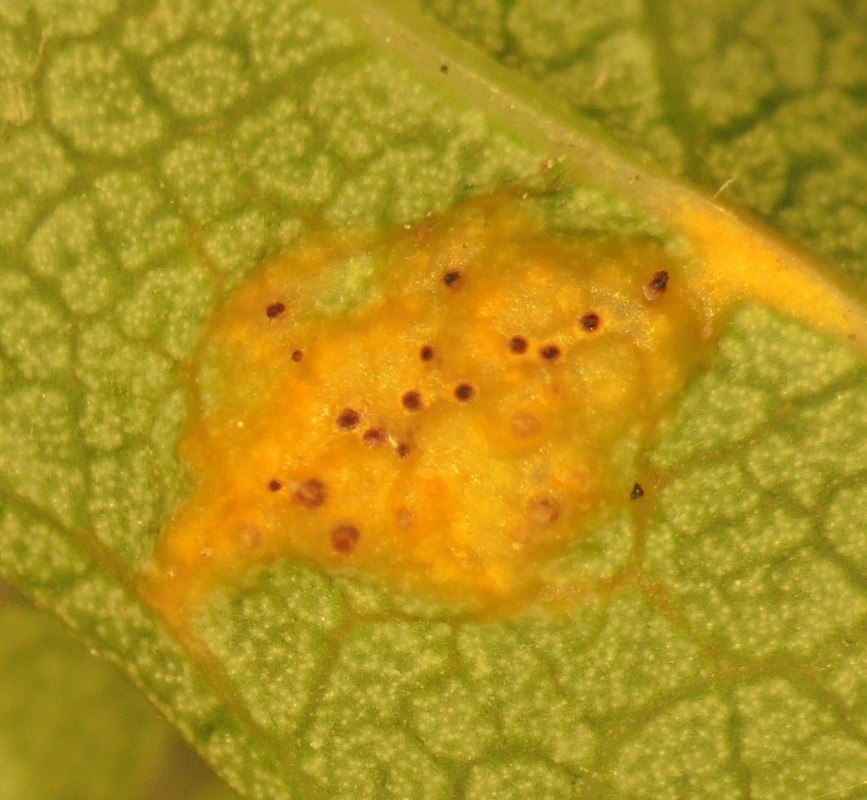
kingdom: Fungi
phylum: Basidiomycota
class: Pucciniomycetes
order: Pucciniales
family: Gymnosporangiaceae
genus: Gymnosporangium
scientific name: Gymnosporangium confusum
